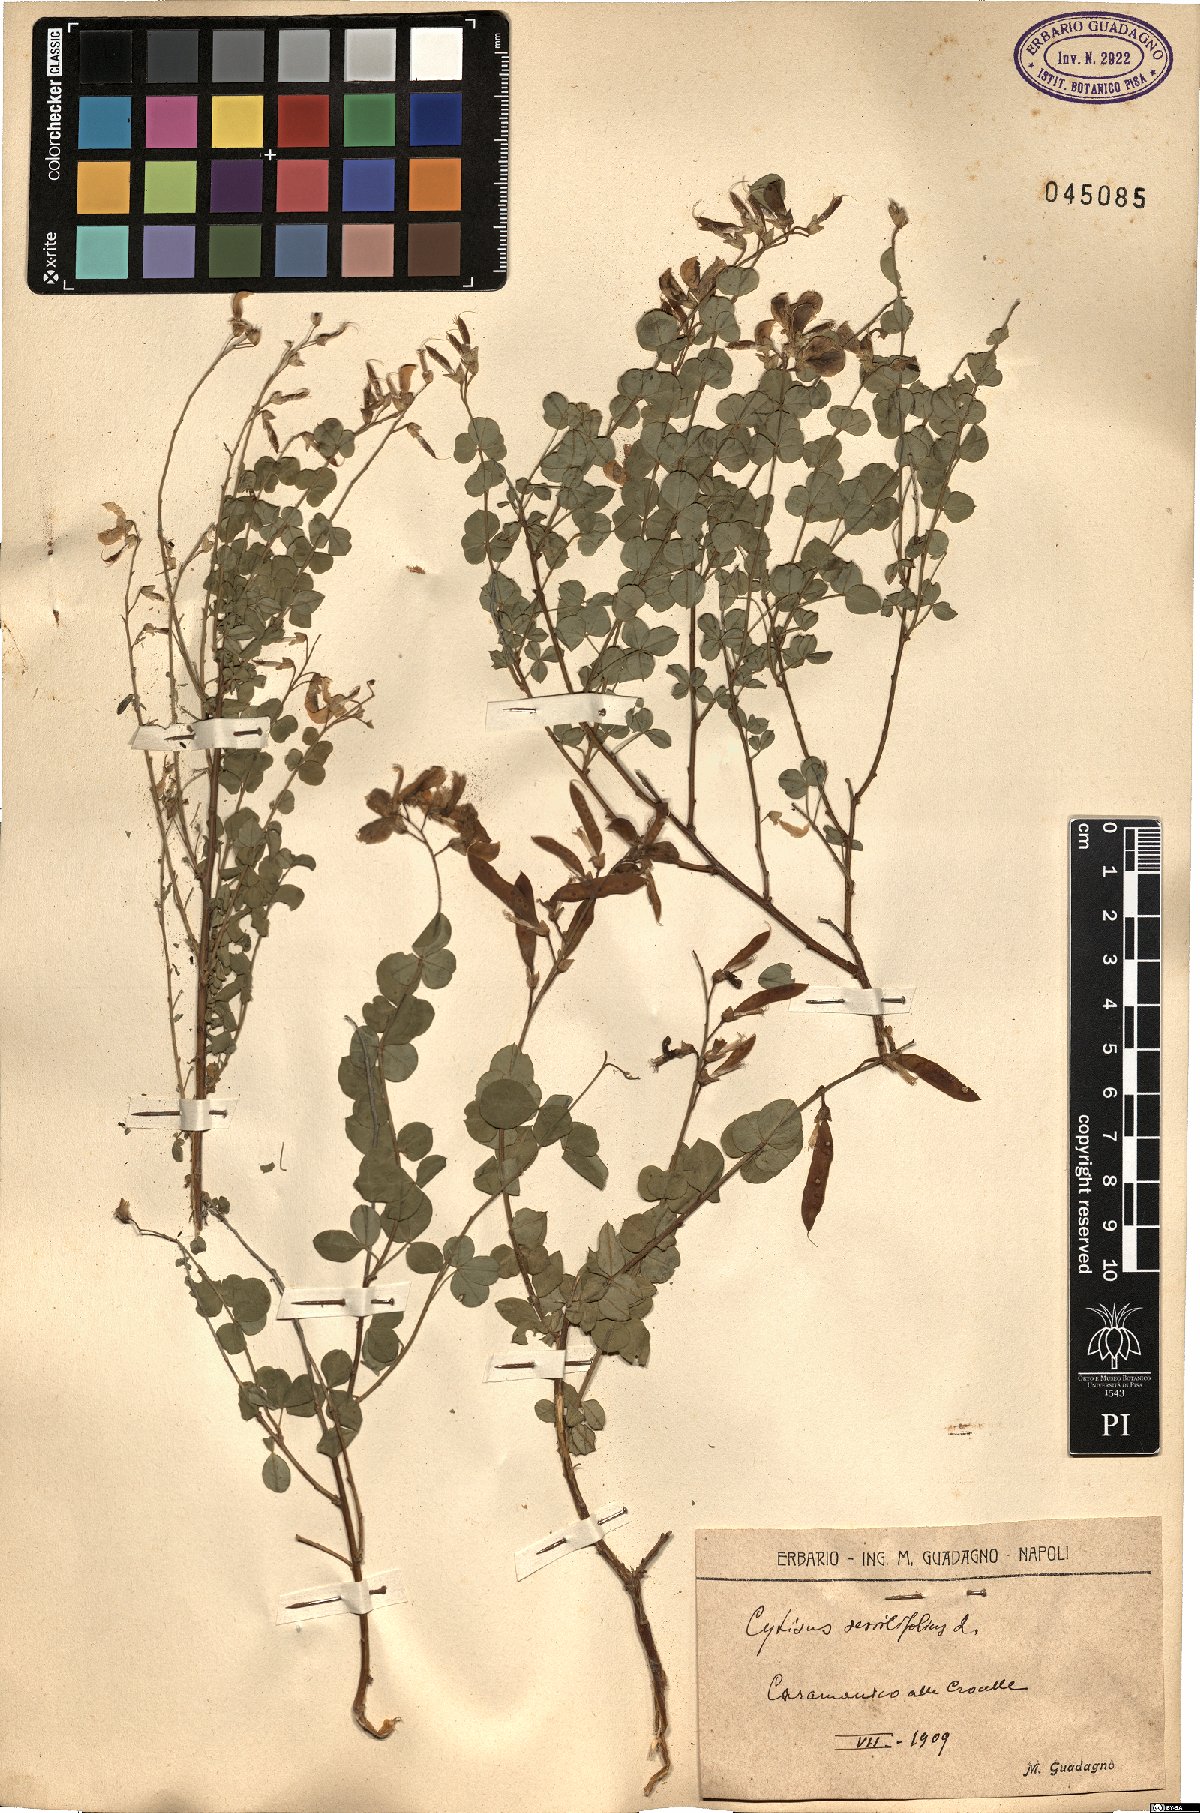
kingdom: Plantae
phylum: Tracheophyta
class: Magnoliopsida
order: Fabales
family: Fabaceae
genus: Cytisophyllum
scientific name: Cytisophyllum sessilifolium
